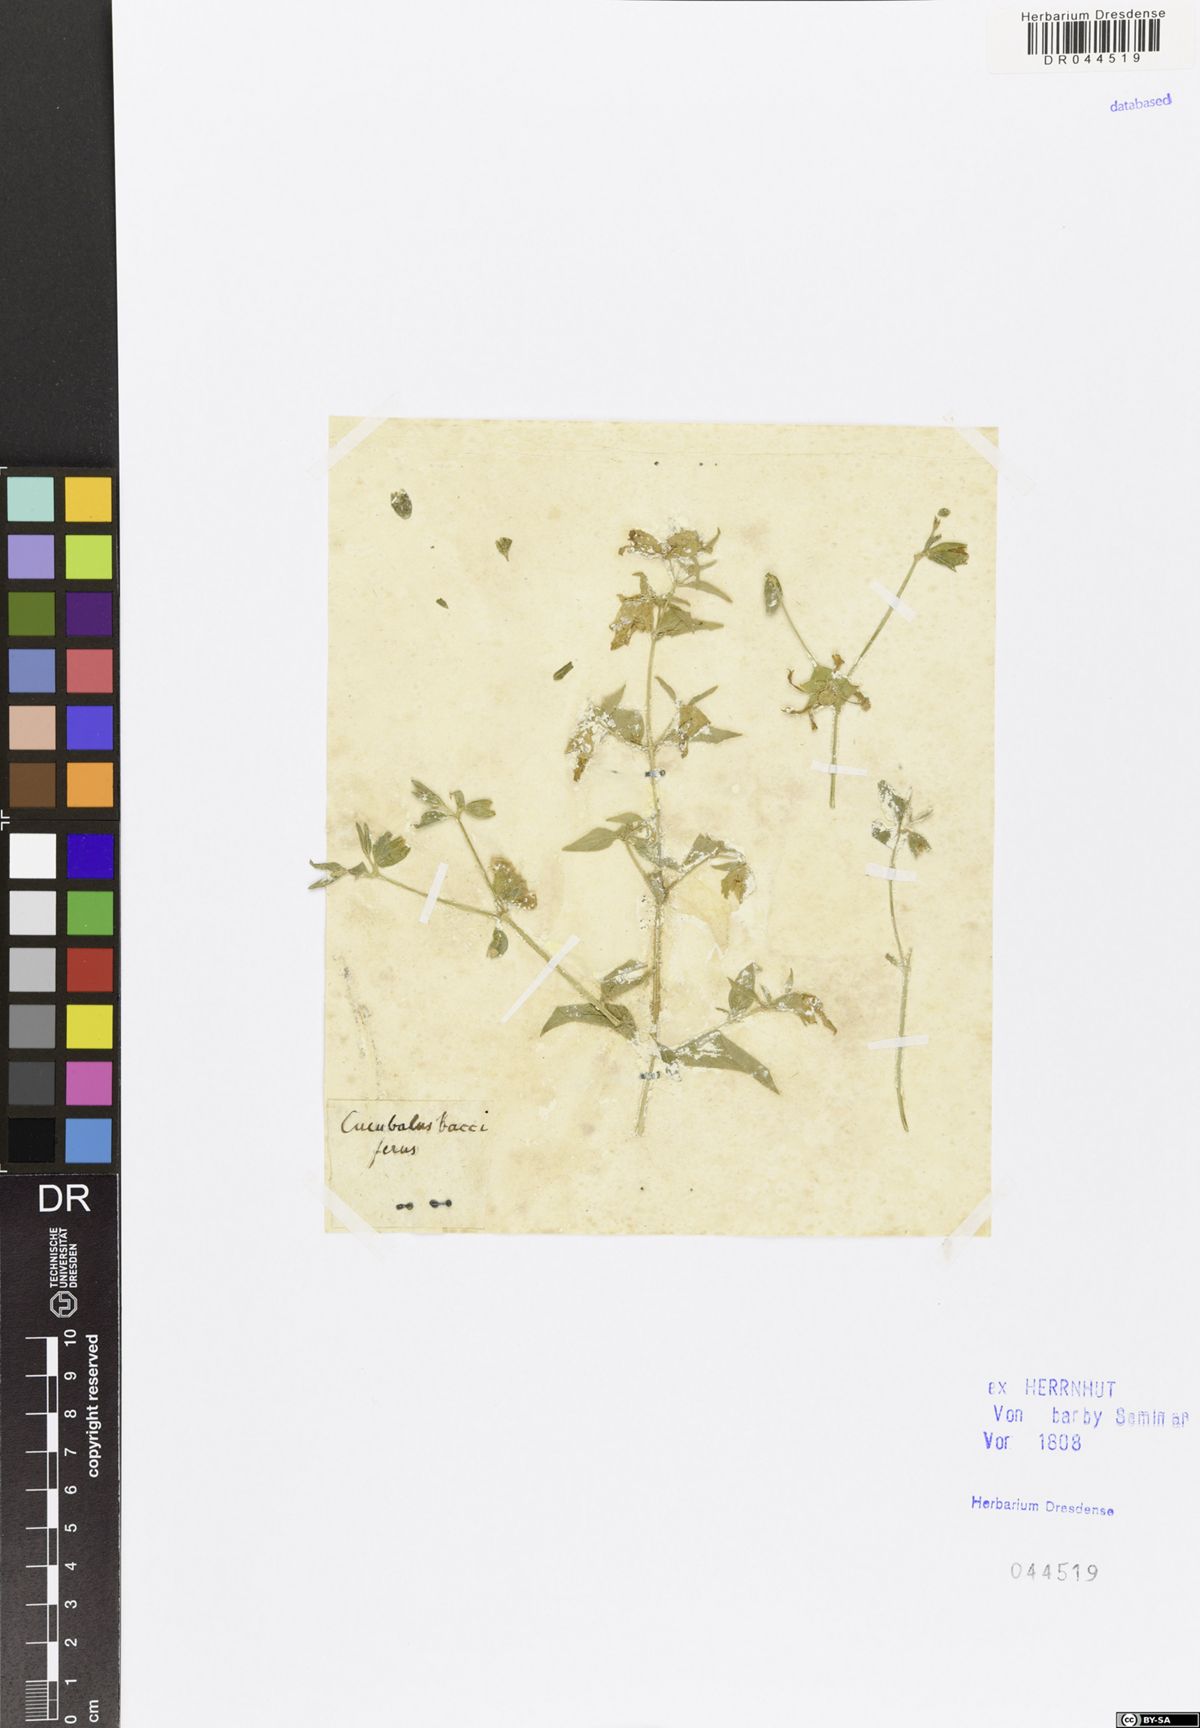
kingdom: Plantae
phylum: Tracheophyta
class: Magnoliopsida
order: Caryophyllales
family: Caryophyllaceae
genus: Silene
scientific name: Silene baccifera
